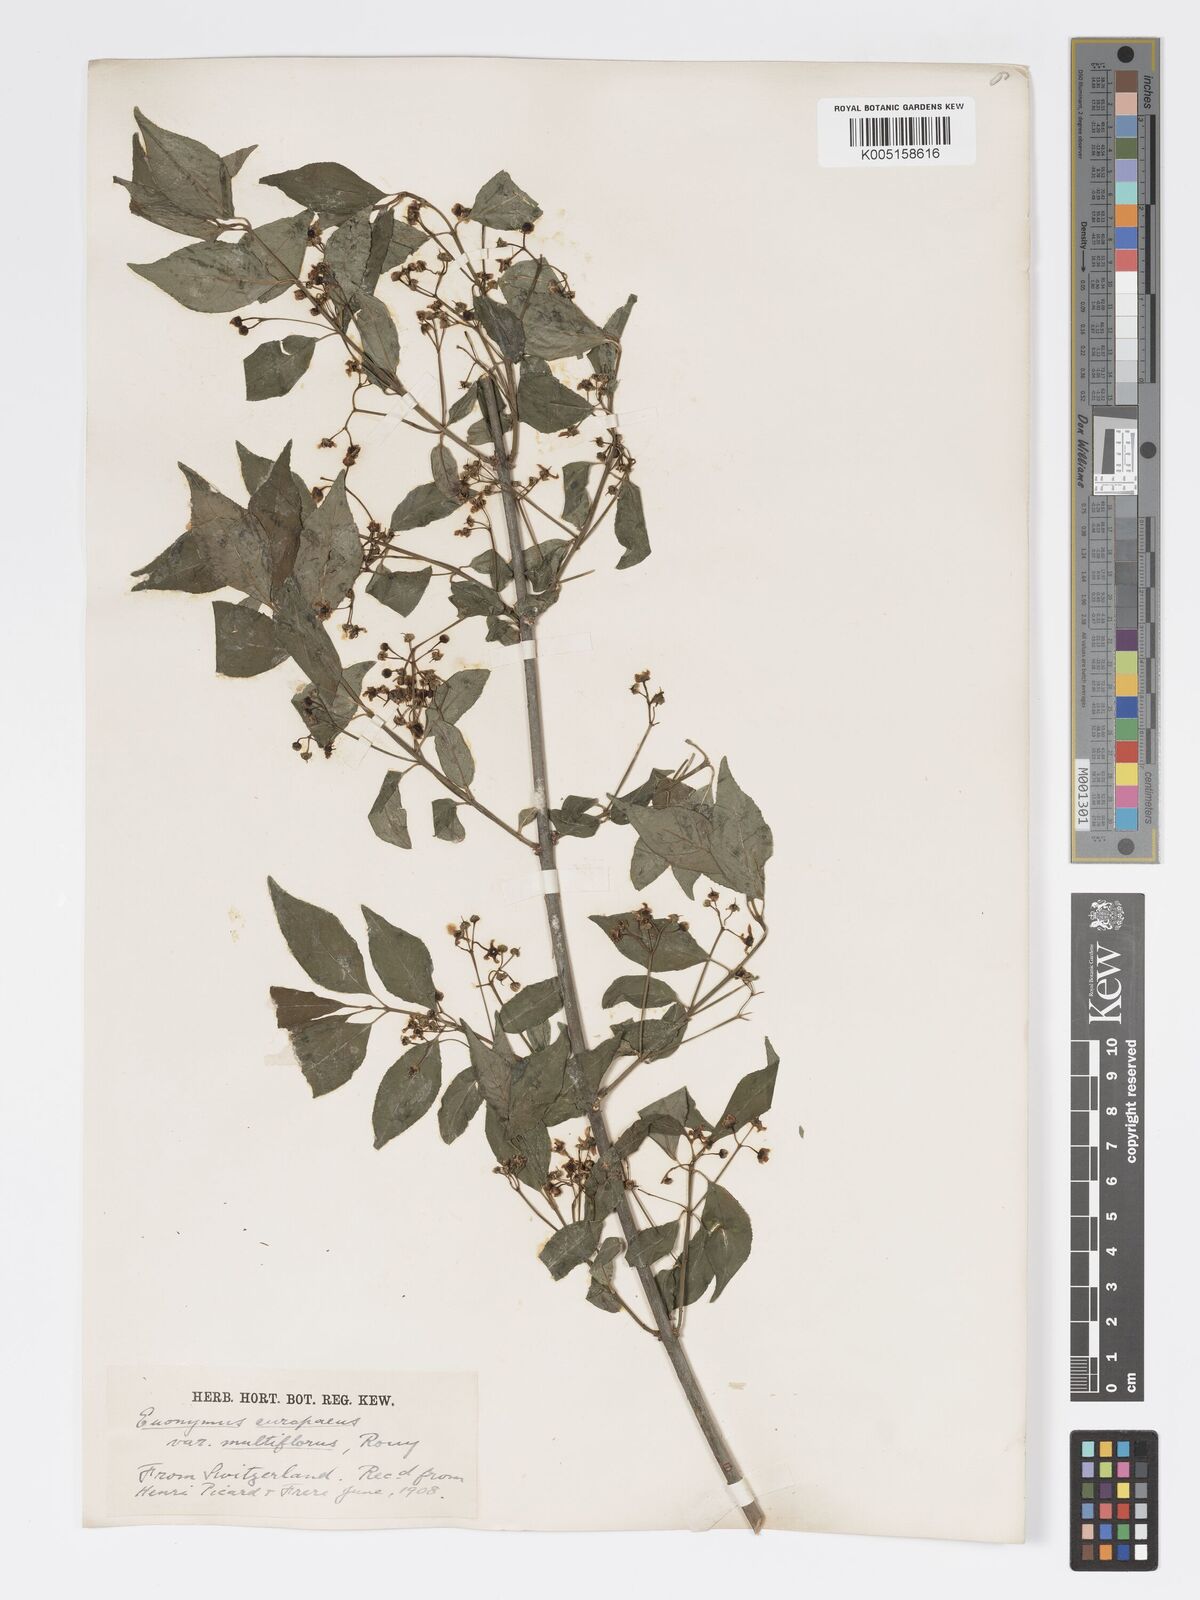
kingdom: Plantae
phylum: Tracheophyta
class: Magnoliopsida
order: Celastrales
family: Celastraceae
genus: Euonymus
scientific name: Euonymus europaeus
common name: Spindle
